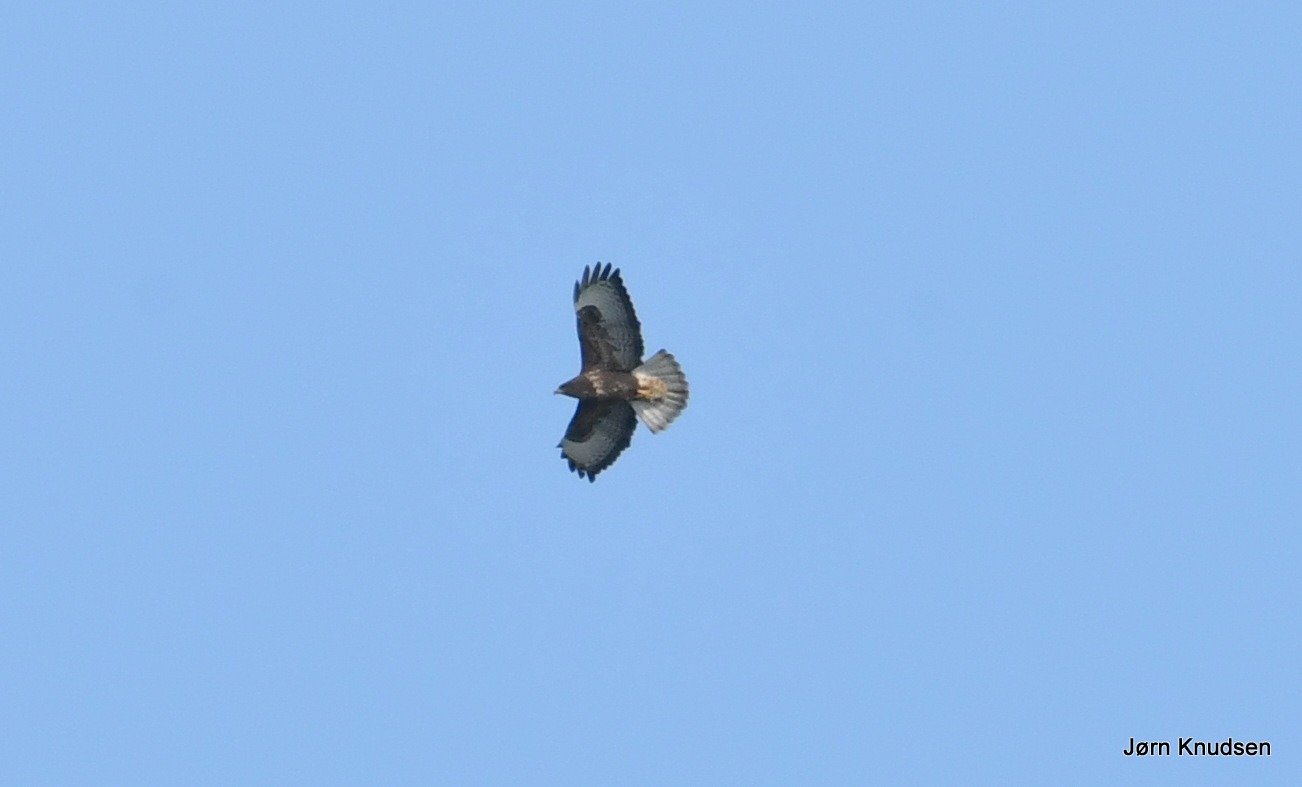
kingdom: Animalia
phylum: Chordata
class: Aves
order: Accipitriformes
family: Accipitridae
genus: Buteo
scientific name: Buteo buteo
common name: Musvåge
